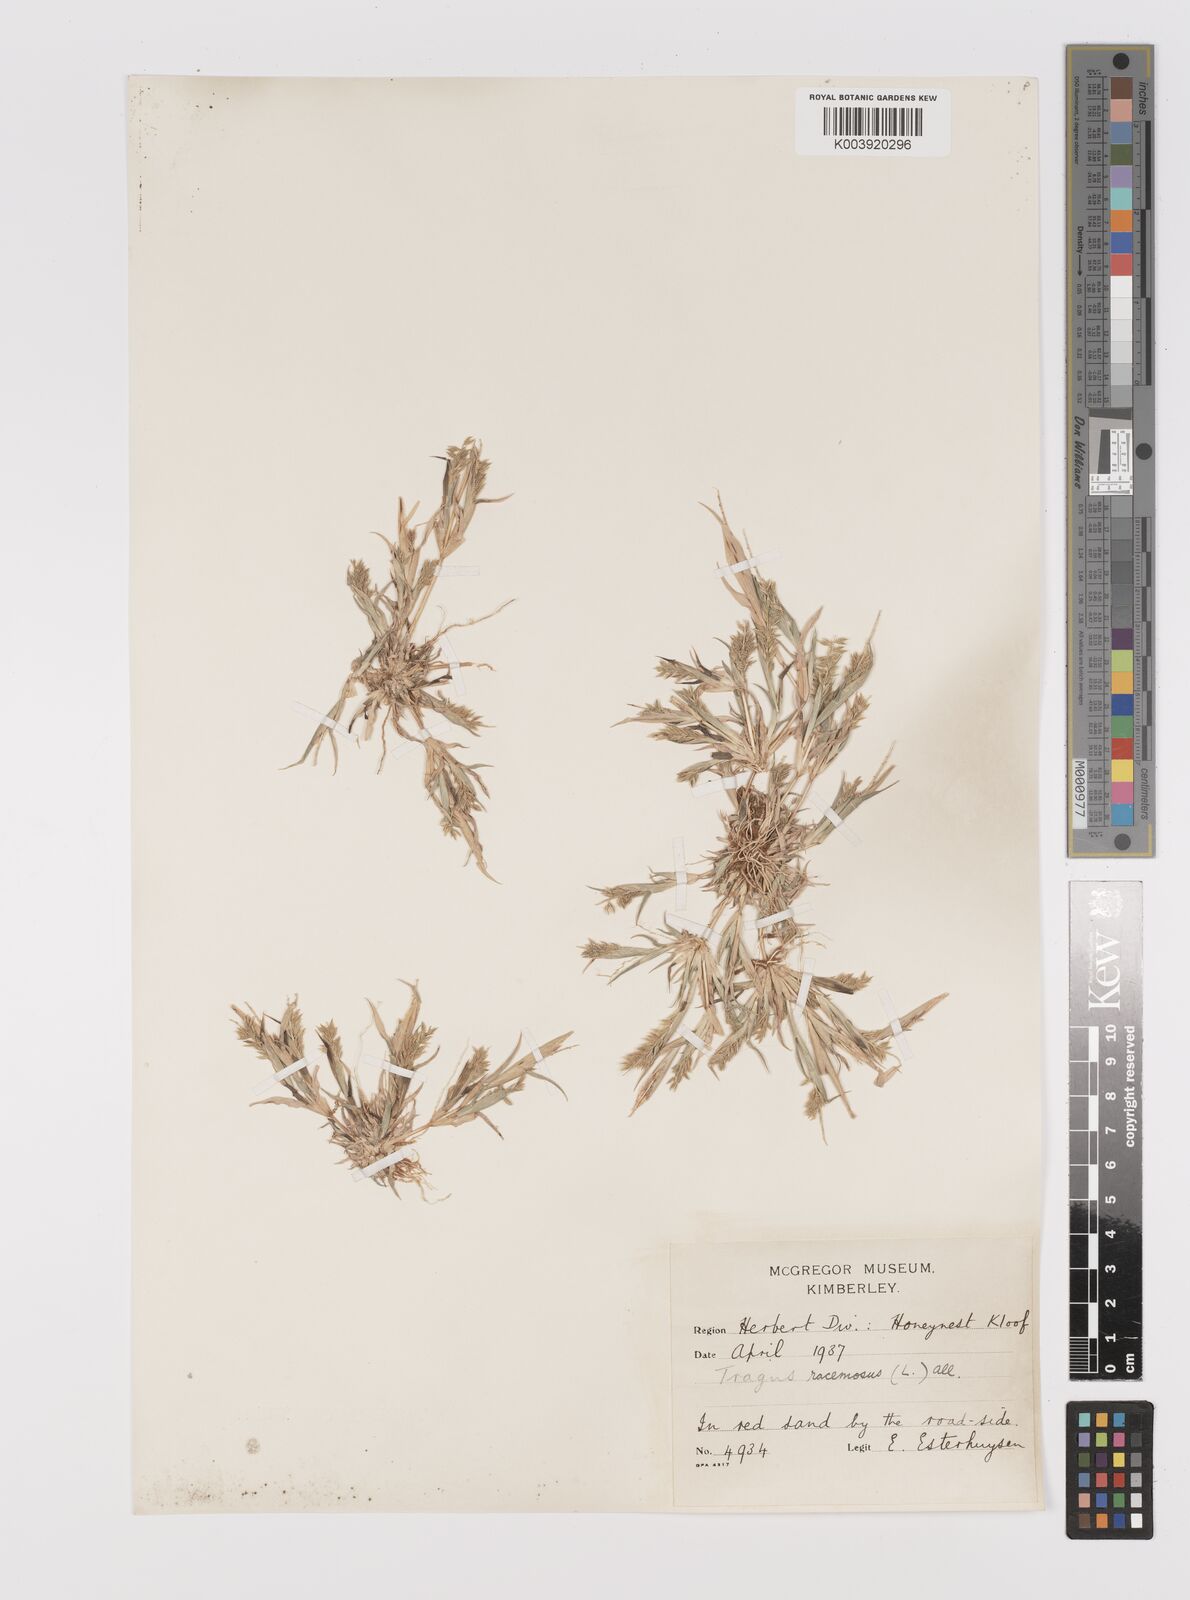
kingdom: Plantae
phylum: Tracheophyta
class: Liliopsida
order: Poales
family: Poaceae
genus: Tragus
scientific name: Tragus racemosus
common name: European bur-grass
